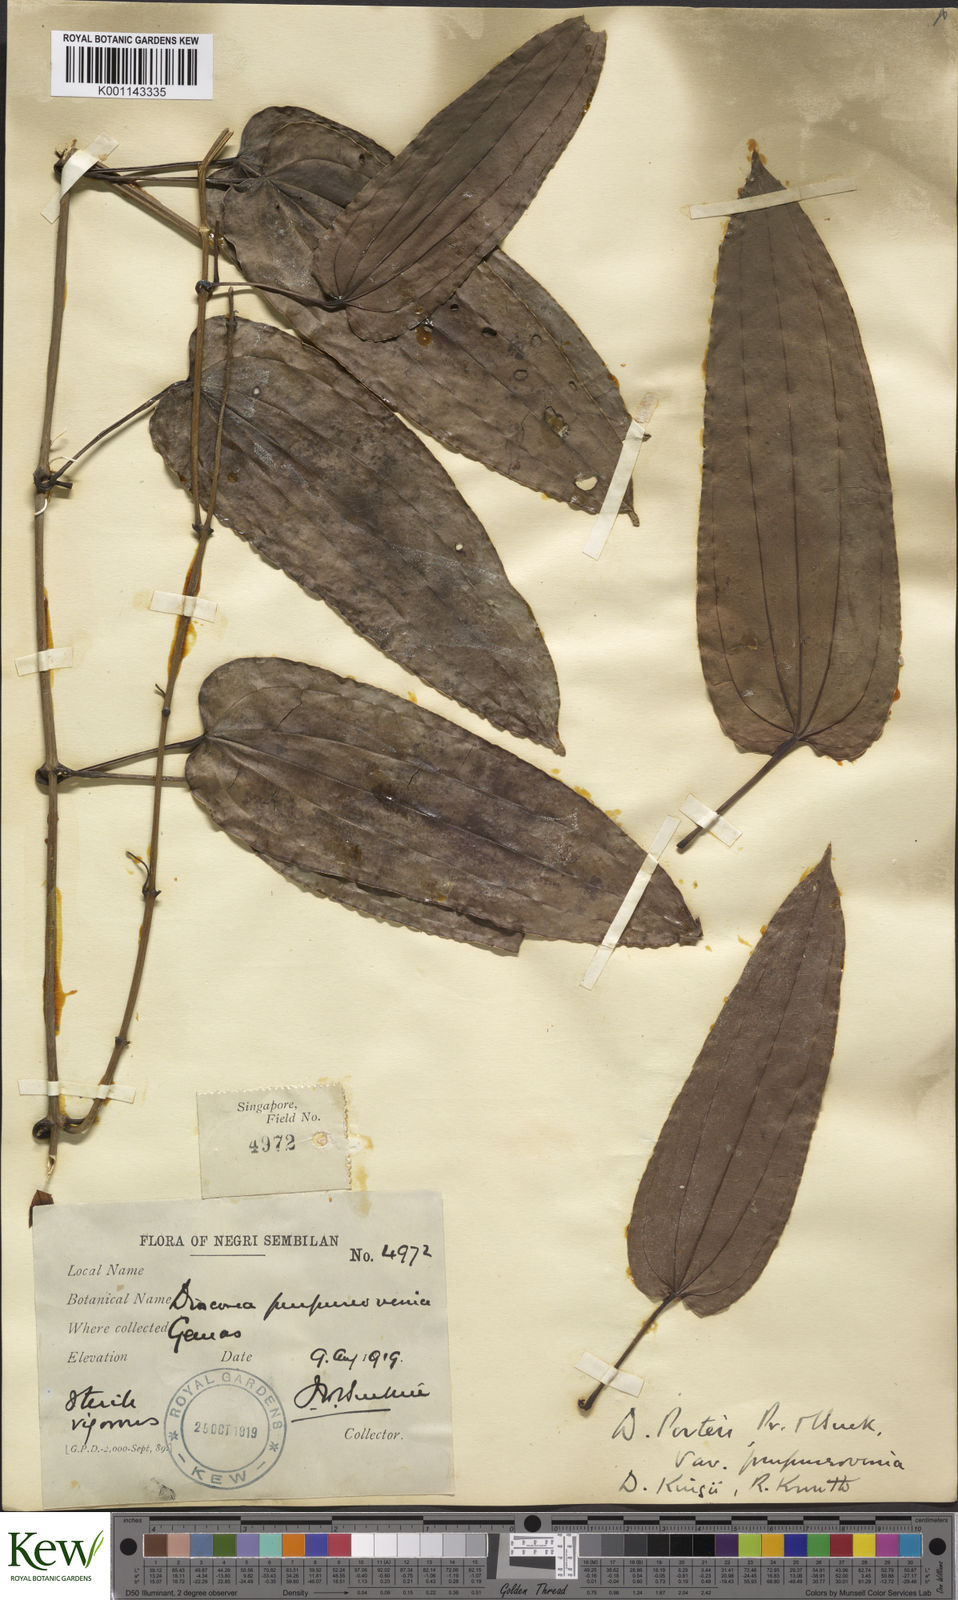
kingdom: Plantae
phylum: Tracheophyta
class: Liliopsida
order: Dioscoreales
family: Dioscoreaceae
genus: Dioscorea
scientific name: Dioscorea kingii
